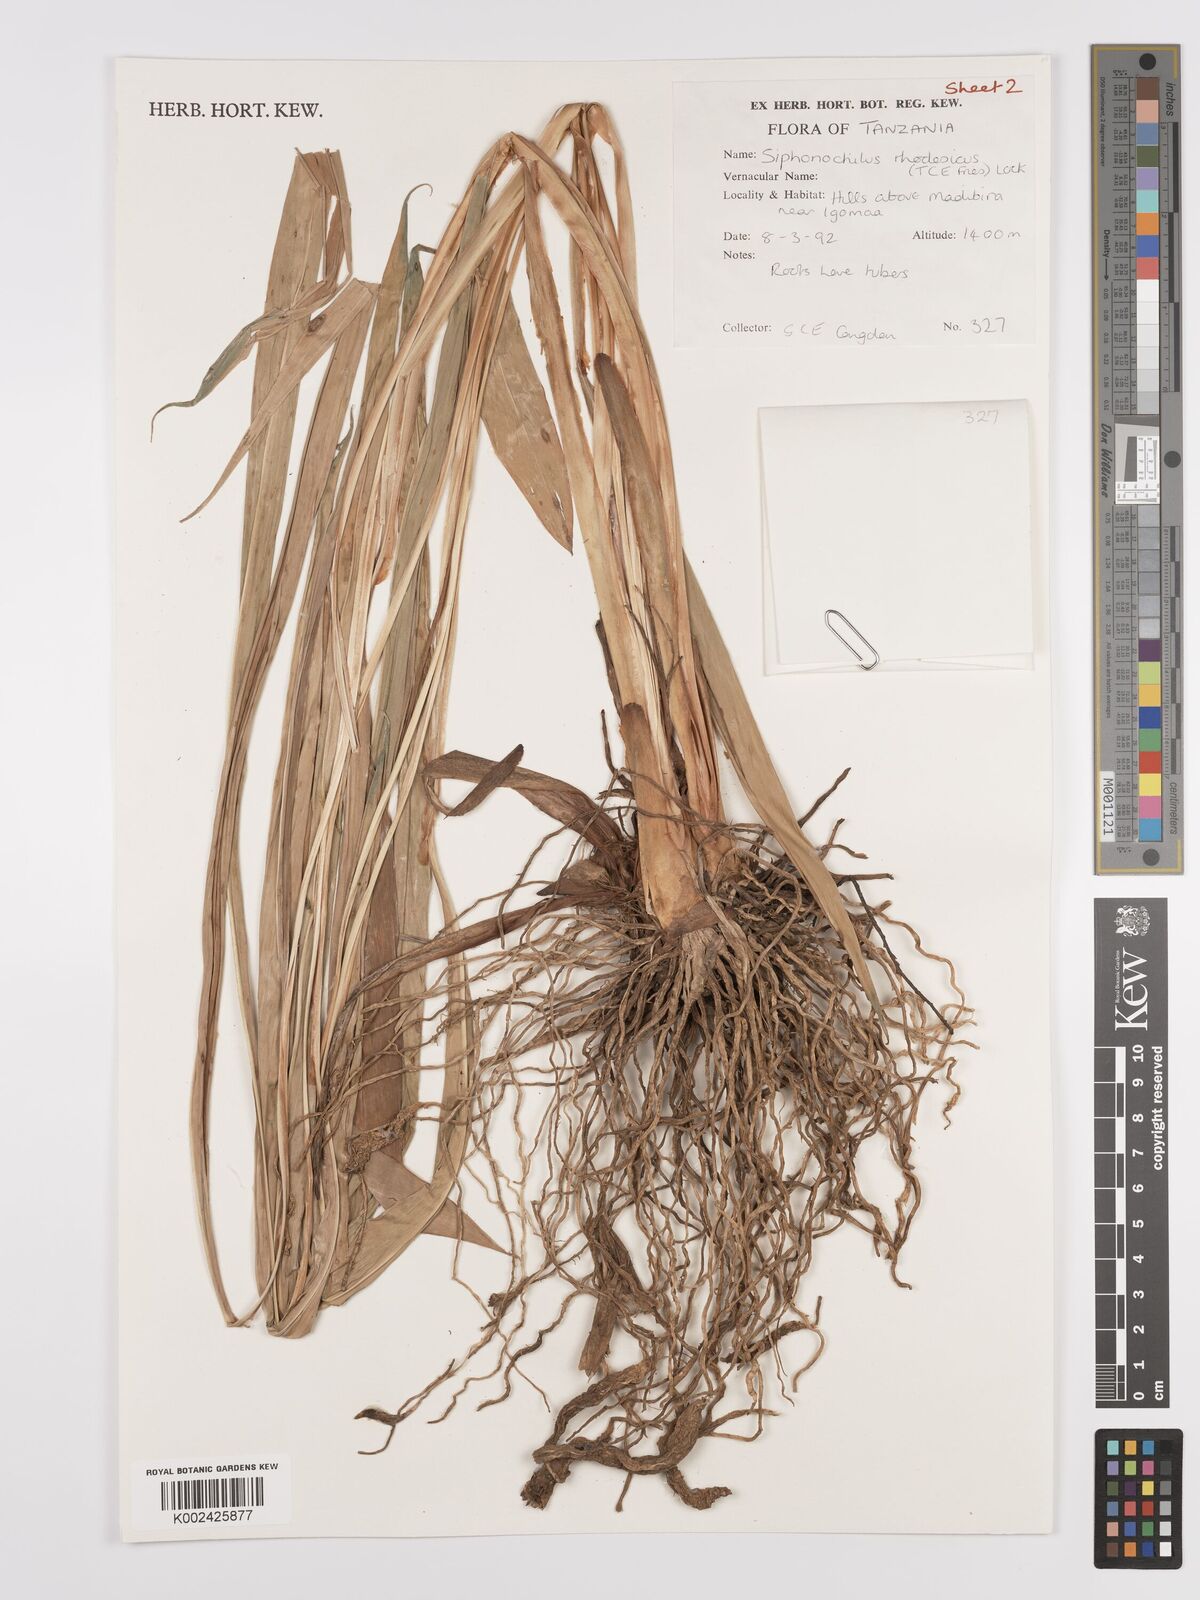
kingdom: Plantae
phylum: Tracheophyta
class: Liliopsida
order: Zingiberales
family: Zingiberaceae
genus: Siphonochilus
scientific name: Siphonochilus rhodesicus
